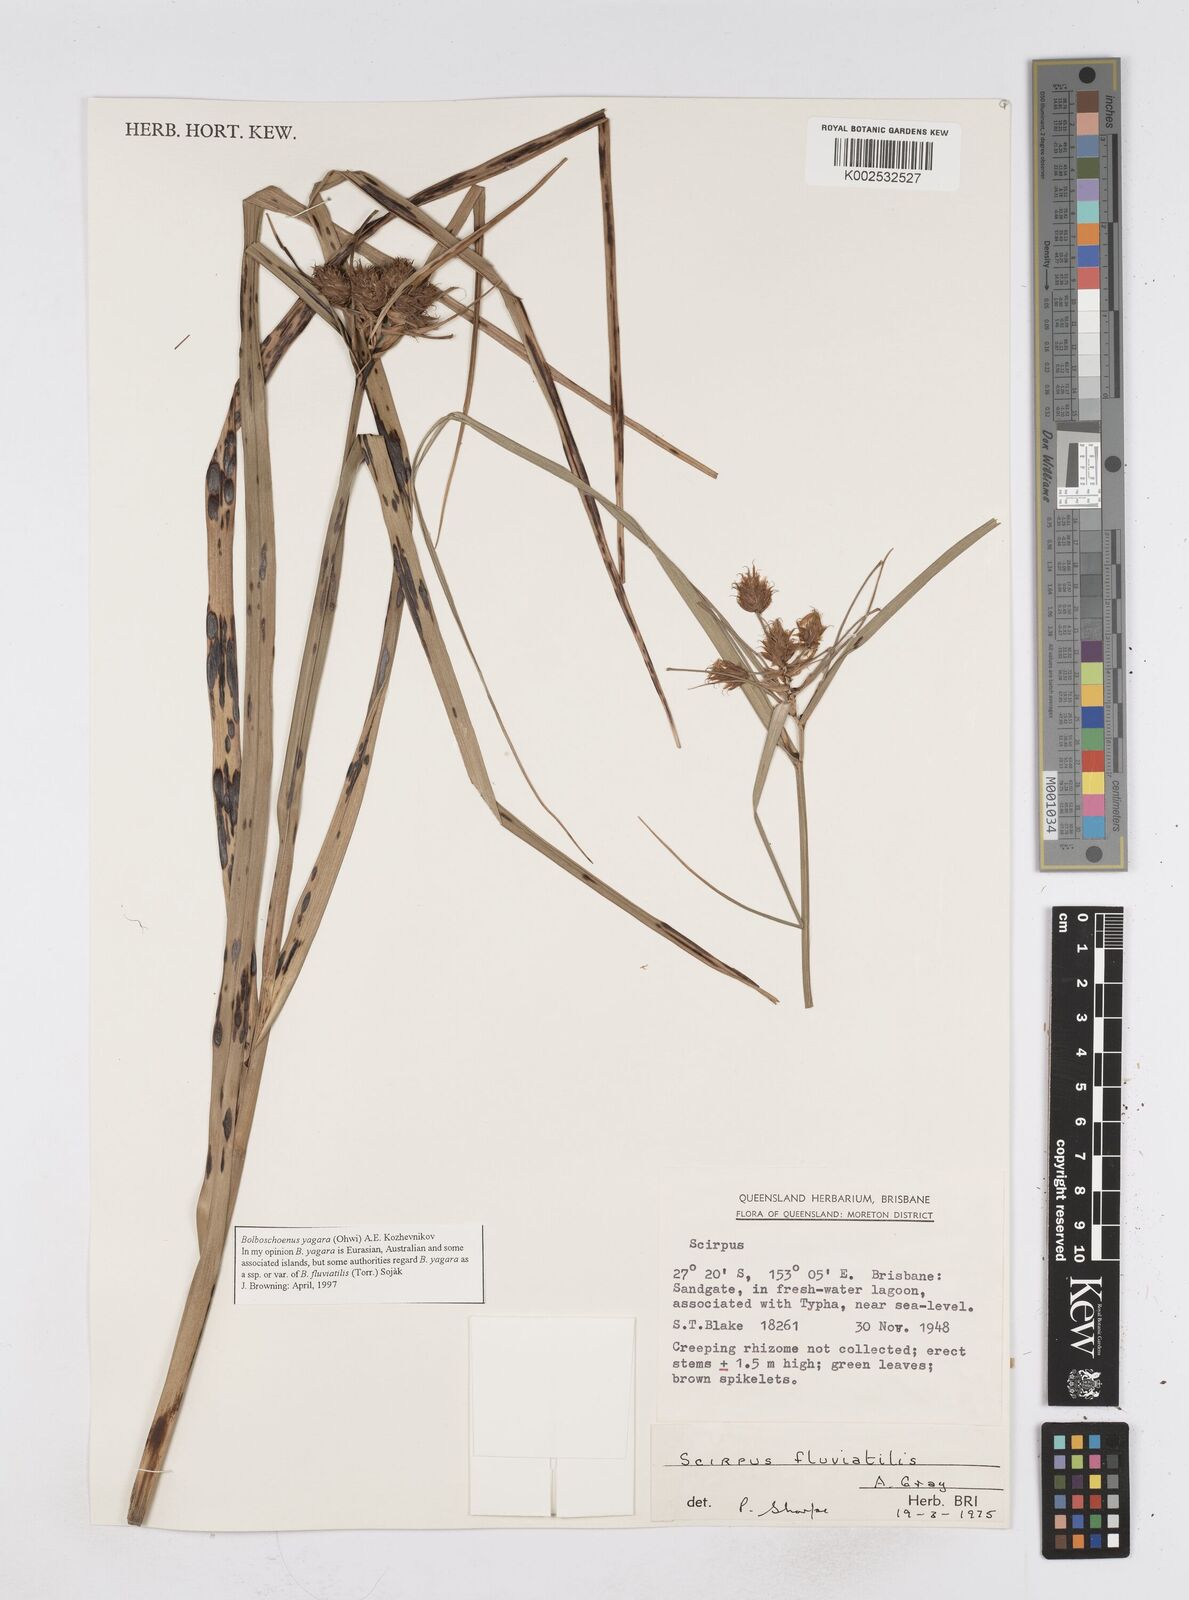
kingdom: Plantae
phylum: Tracheophyta
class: Liliopsida
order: Poales
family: Cyperaceae
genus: Bolboschoenus
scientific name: Bolboschoenus maritimus
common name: Sea club-rush
